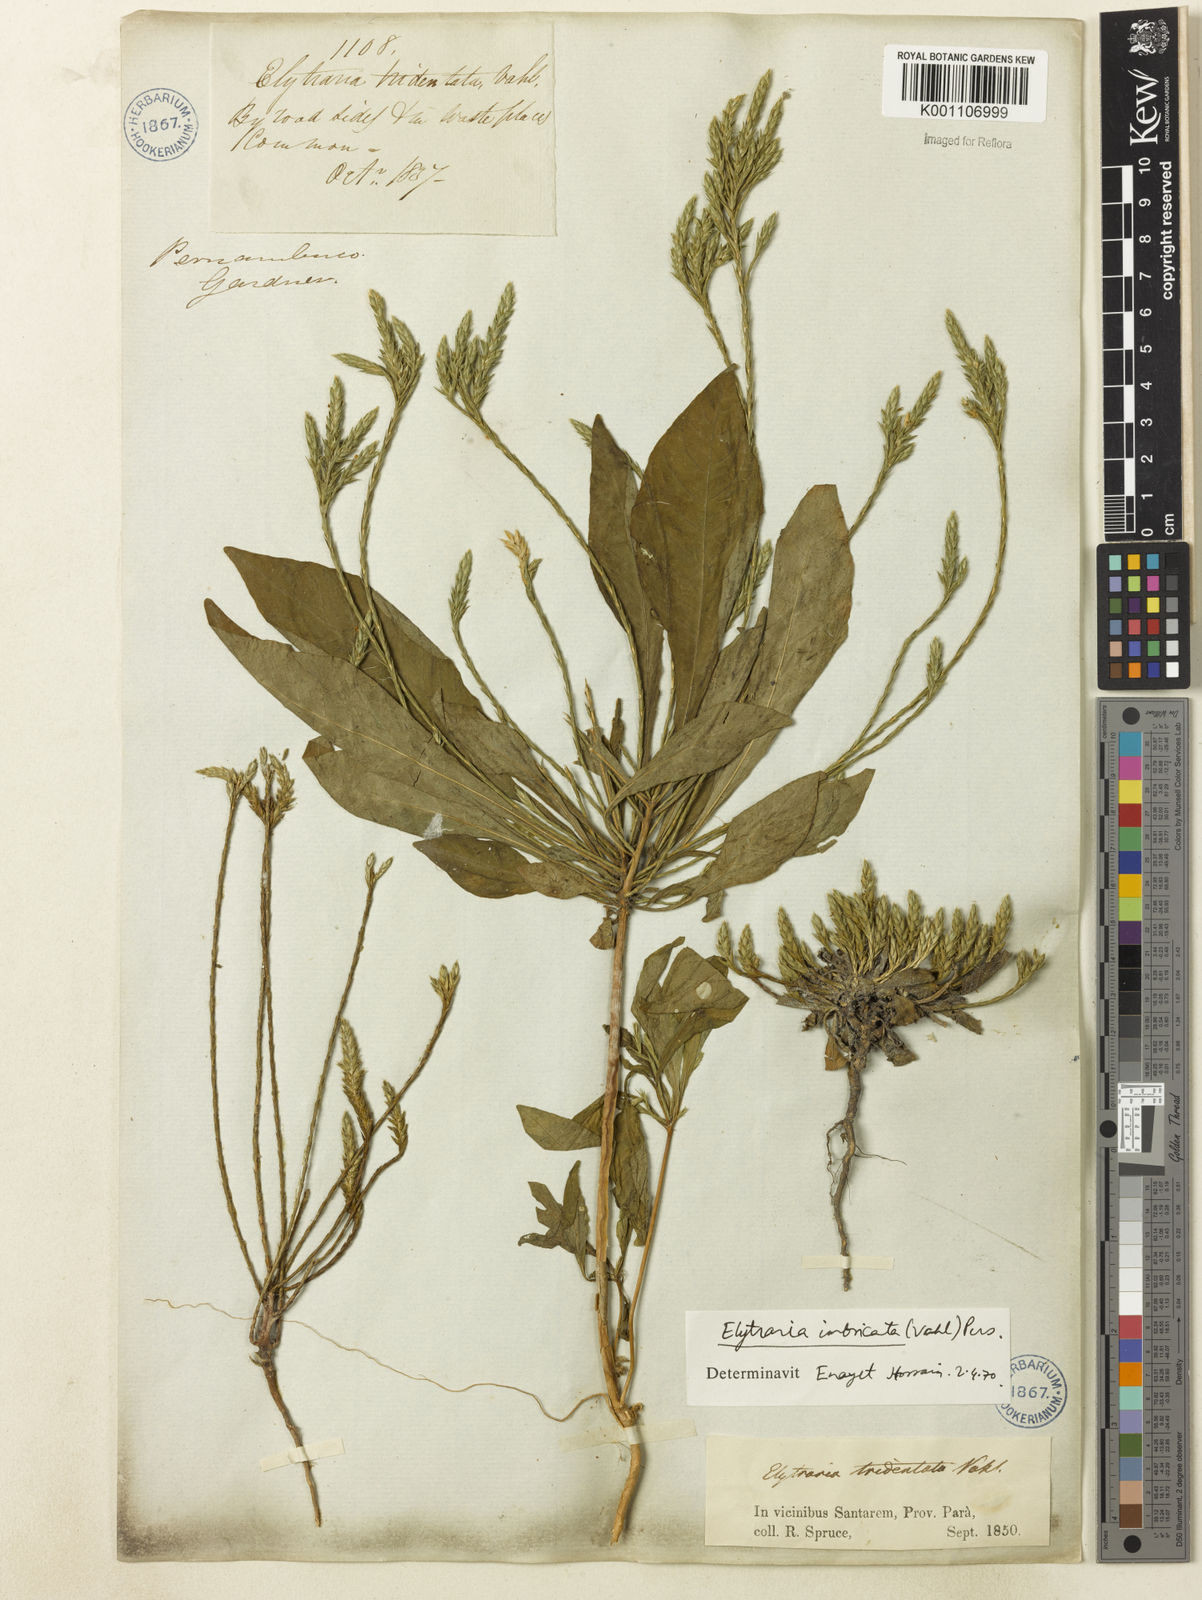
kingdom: Plantae
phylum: Tracheophyta
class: Magnoliopsida
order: Lamiales
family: Acanthaceae
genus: Elytraria
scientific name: Elytraria imbricata
